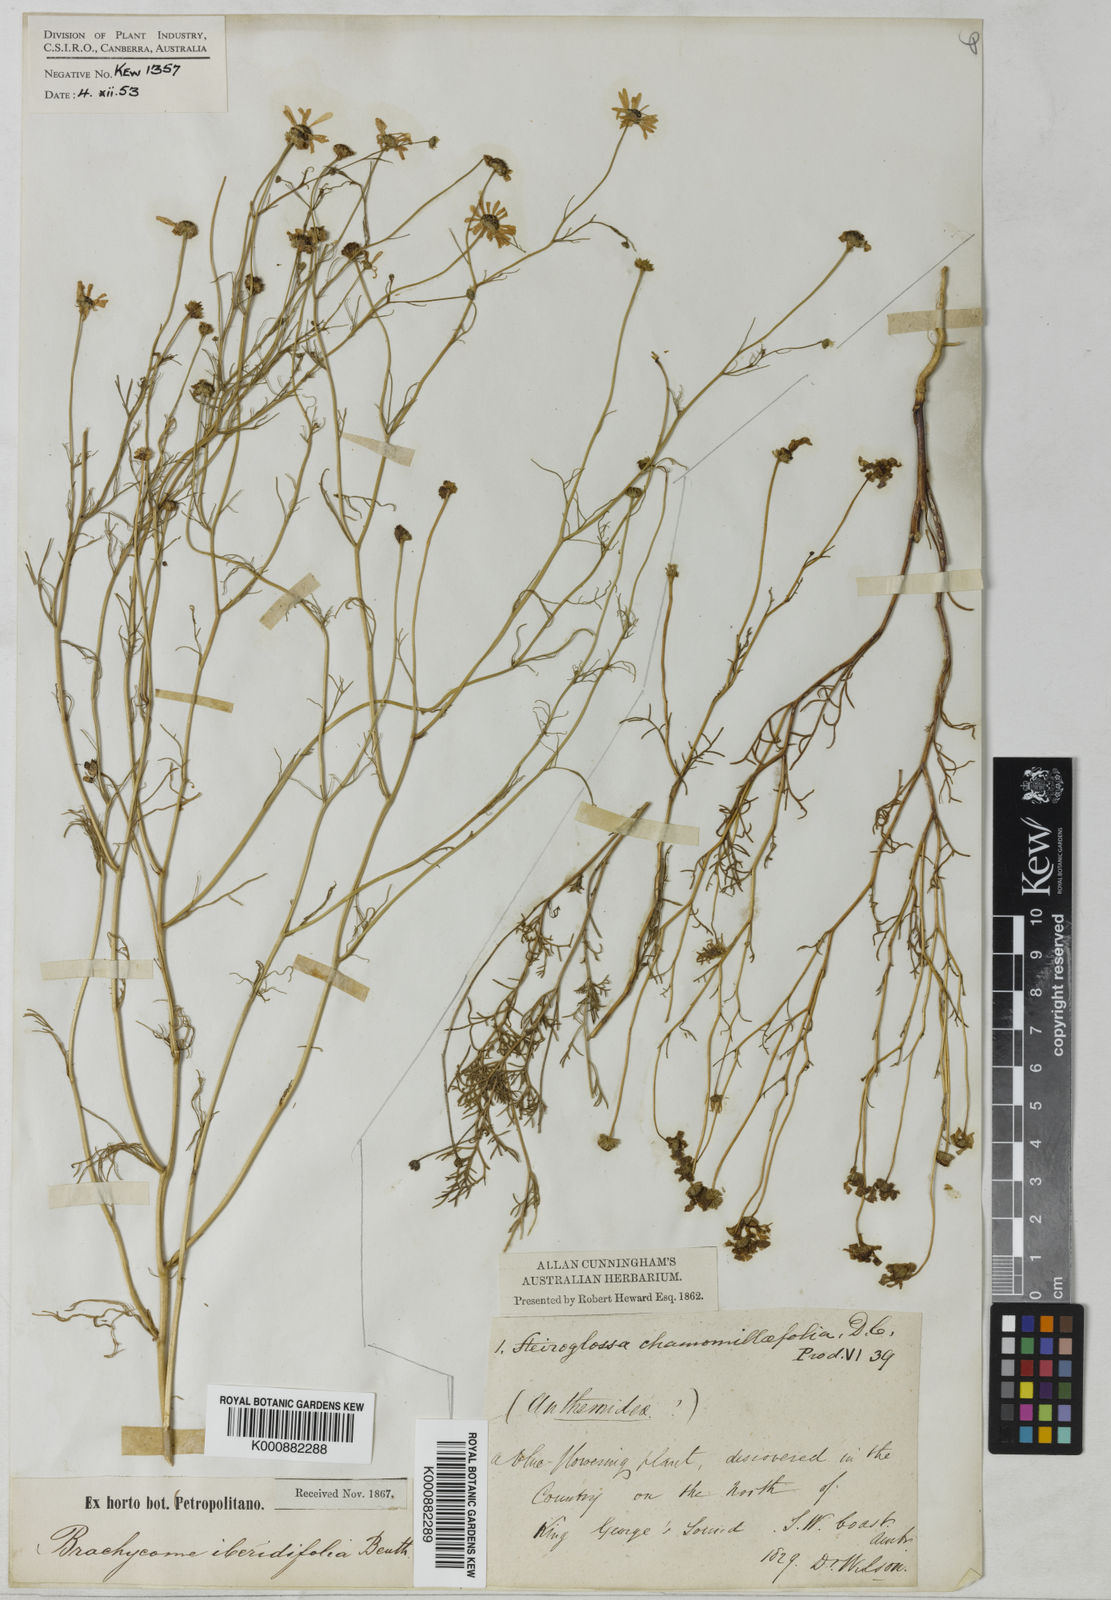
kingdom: Plantae
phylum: Tracheophyta
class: Magnoliopsida
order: Asterales
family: Asteraceae
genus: Brachyscome
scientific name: Brachyscome iberidifolia
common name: Swan river daisy
